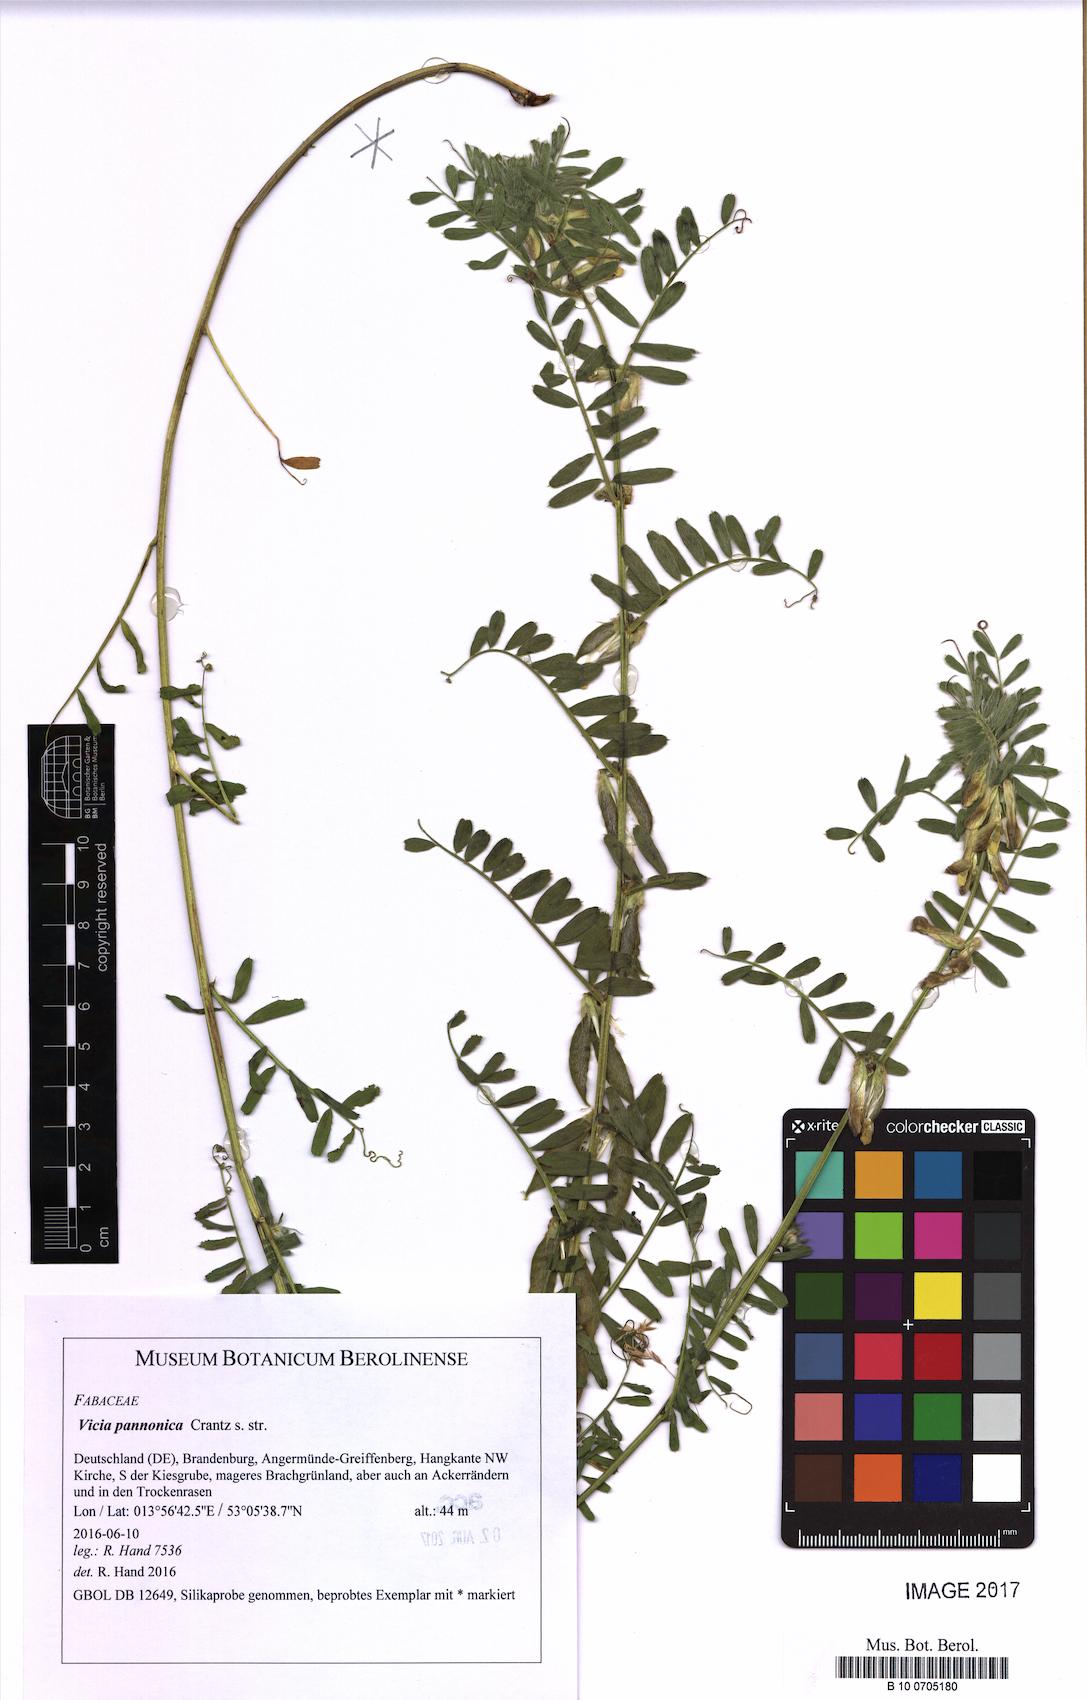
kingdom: Plantae
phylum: Tracheophyta
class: Magnoliopsida
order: Fabales
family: Fabaceae
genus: Vicia
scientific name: Vicia pannonica
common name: Hungarian vetch
